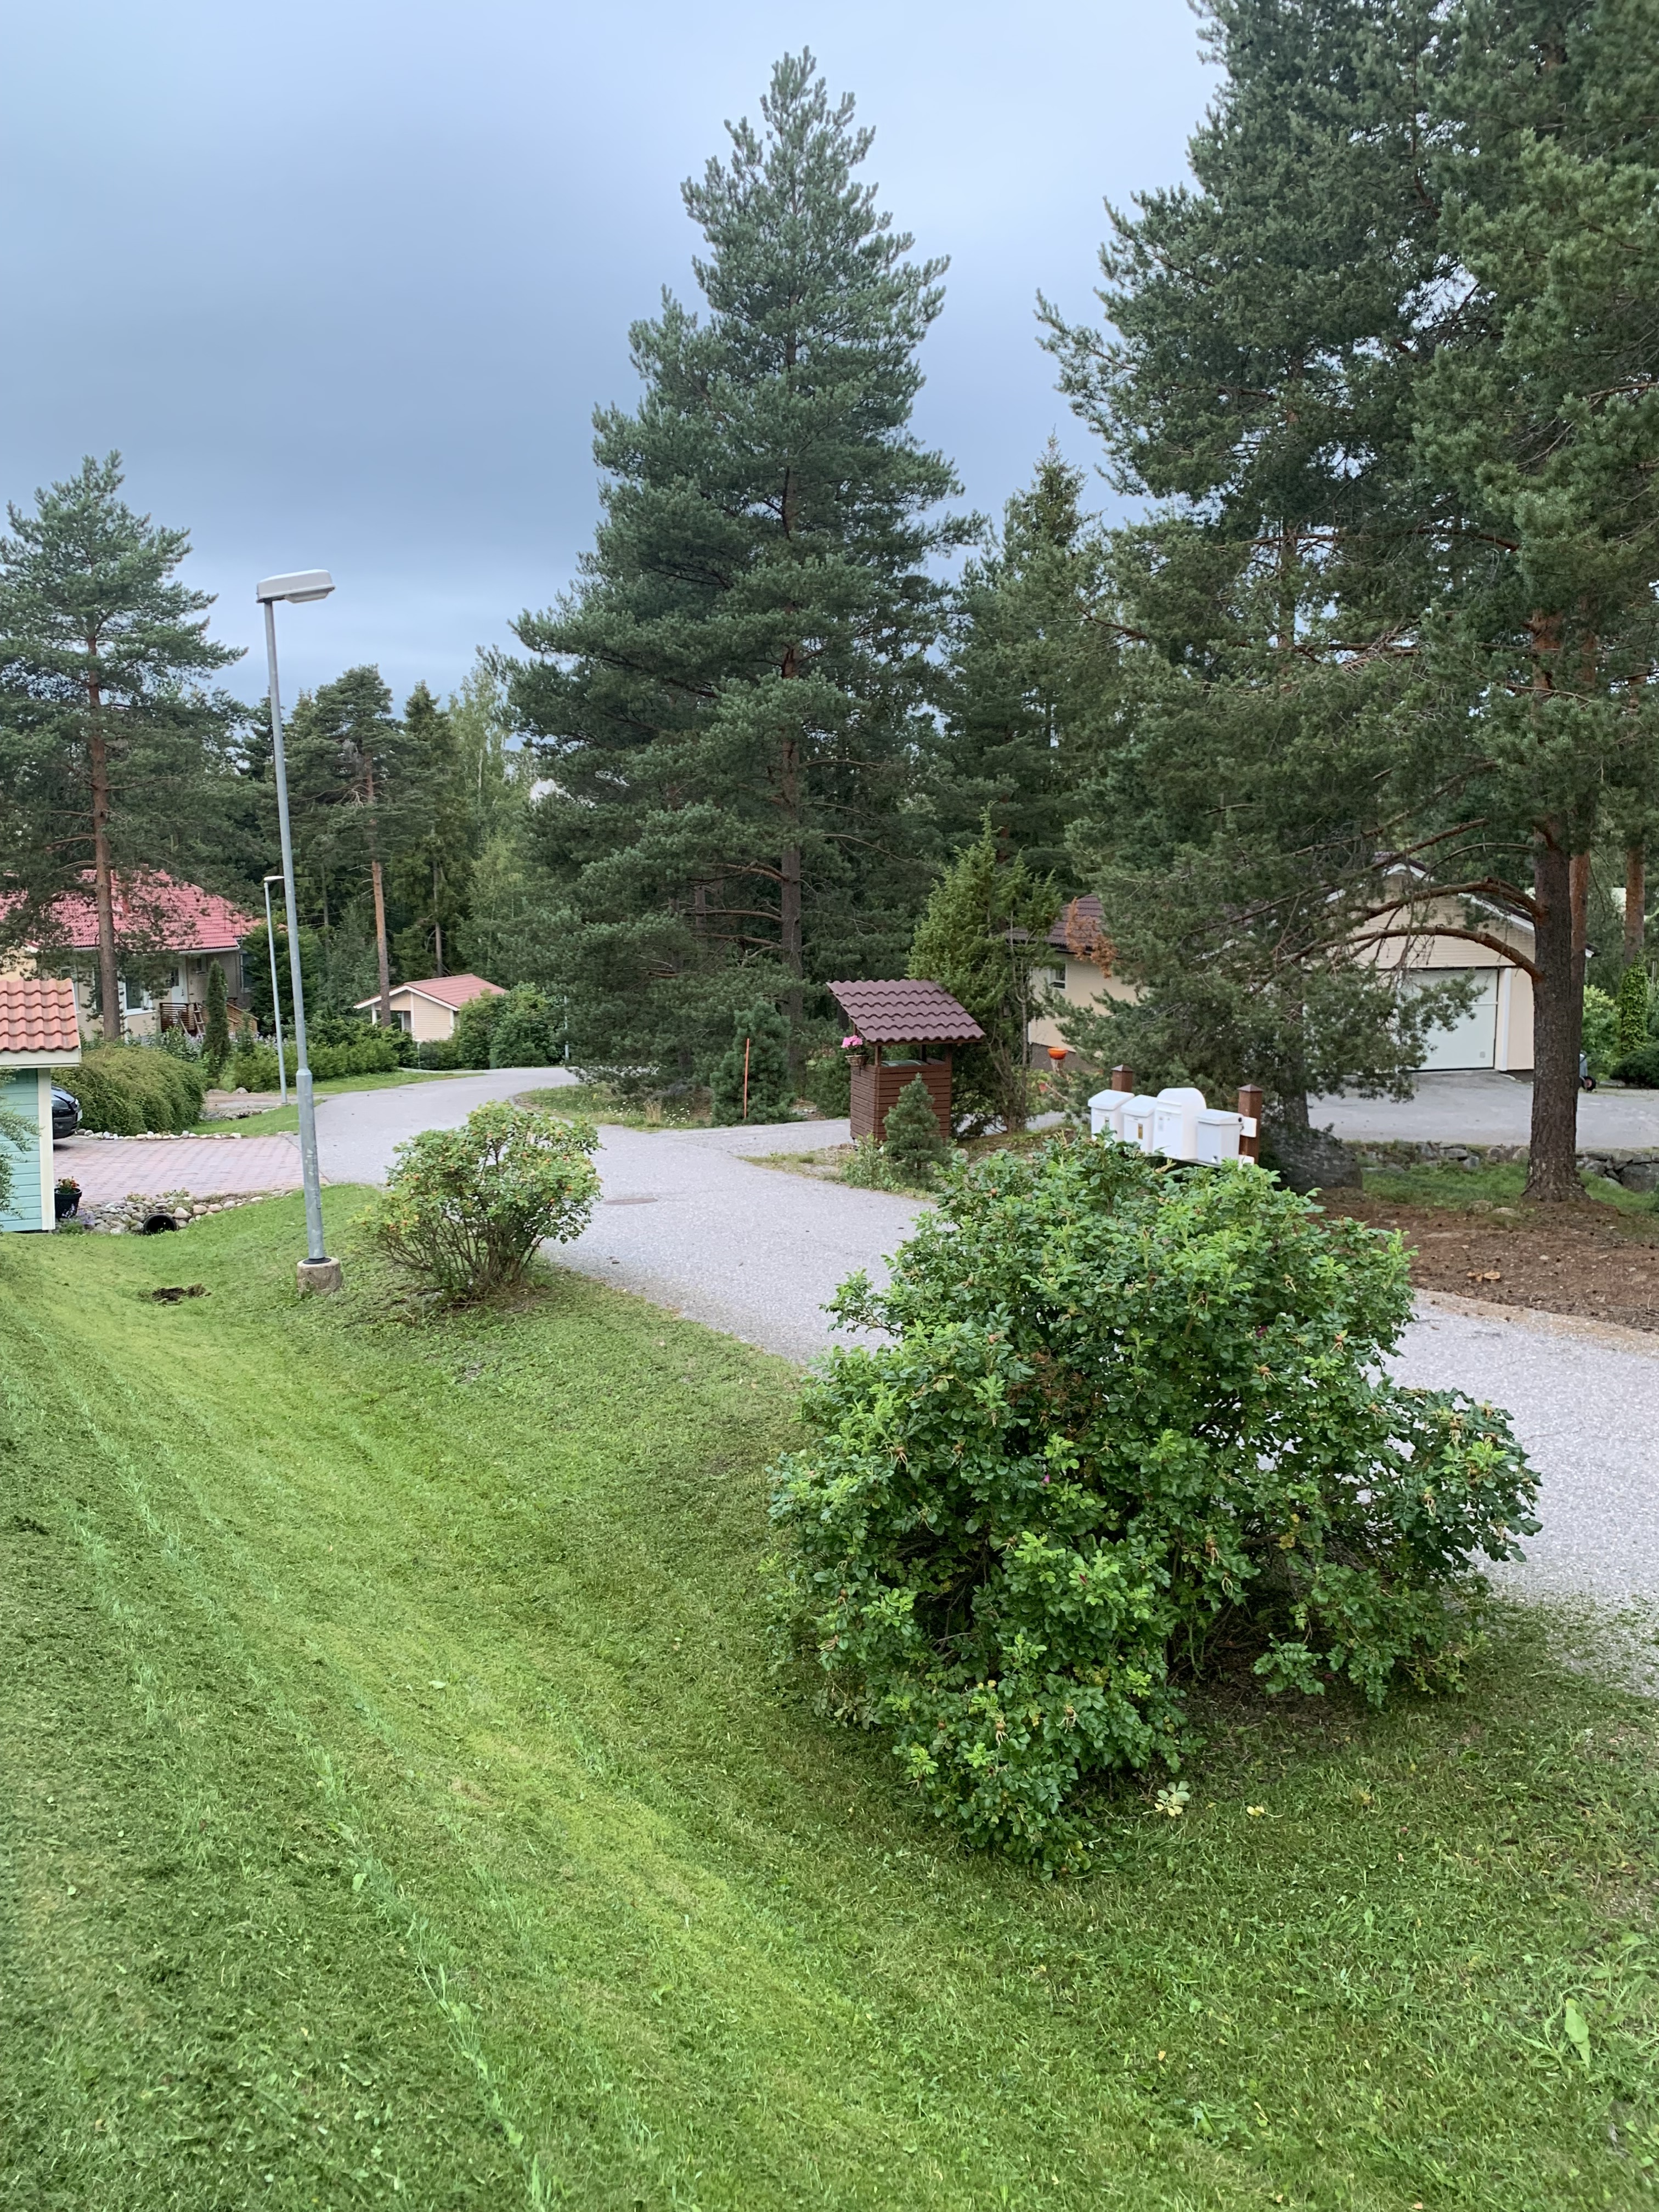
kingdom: Plantae
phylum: Tracheophyta
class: Magnoliopsida
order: Rosales
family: Rosaceae
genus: Rosa
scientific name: Rosa rugosa
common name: Japanese rose
